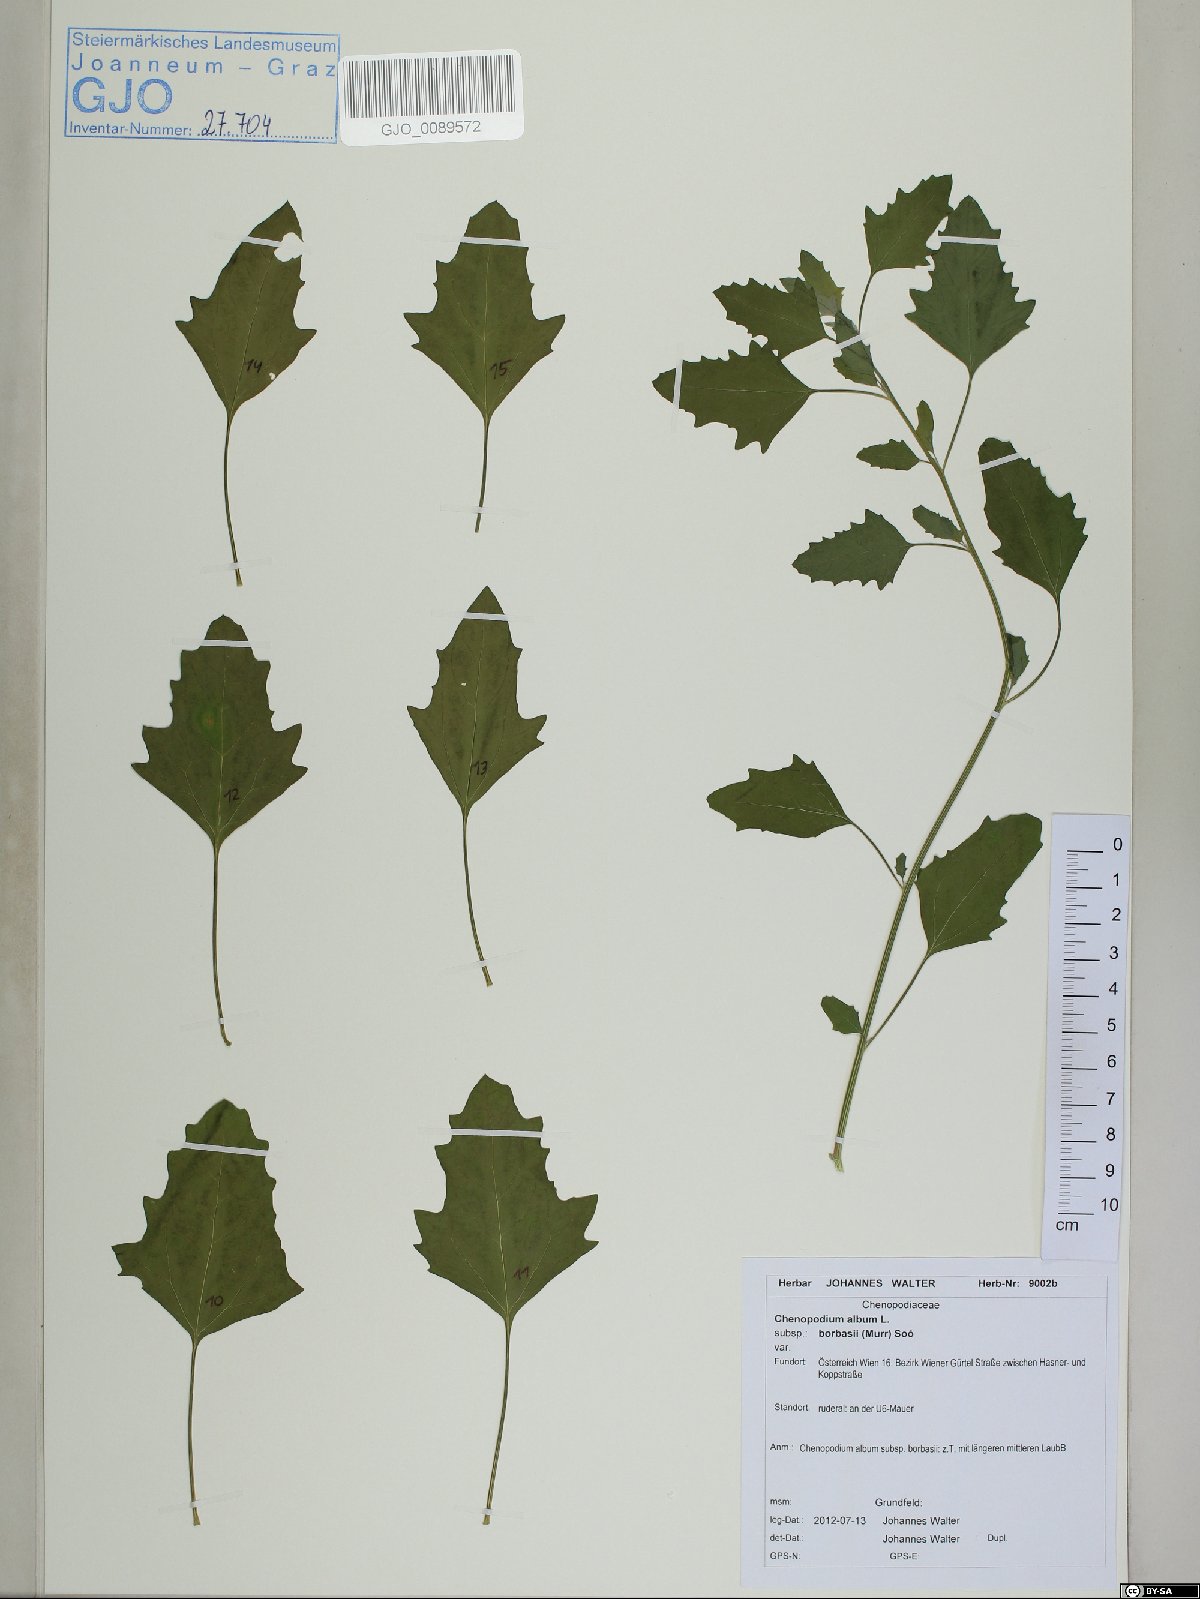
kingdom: Plantae
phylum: Tracheophyta
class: Magnoliopsida
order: Caryophyllales
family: Amaranthaceae
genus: Chenopodium
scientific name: Chenopodium borbasii
